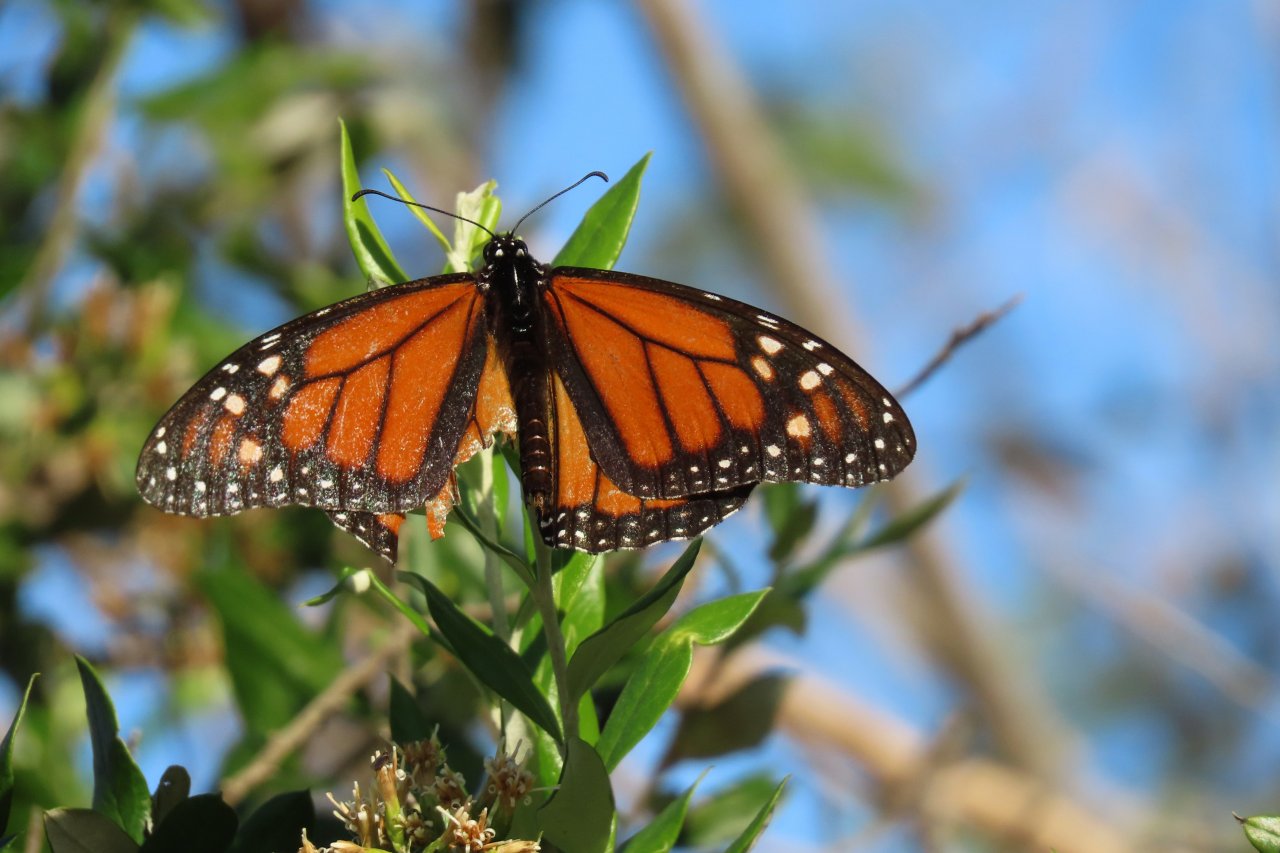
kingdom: Animalia
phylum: Arthropoda
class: Insecta
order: Lepidoptera
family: Nymphalidae
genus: Danaus
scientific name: Danaus plexippus
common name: Monarch
